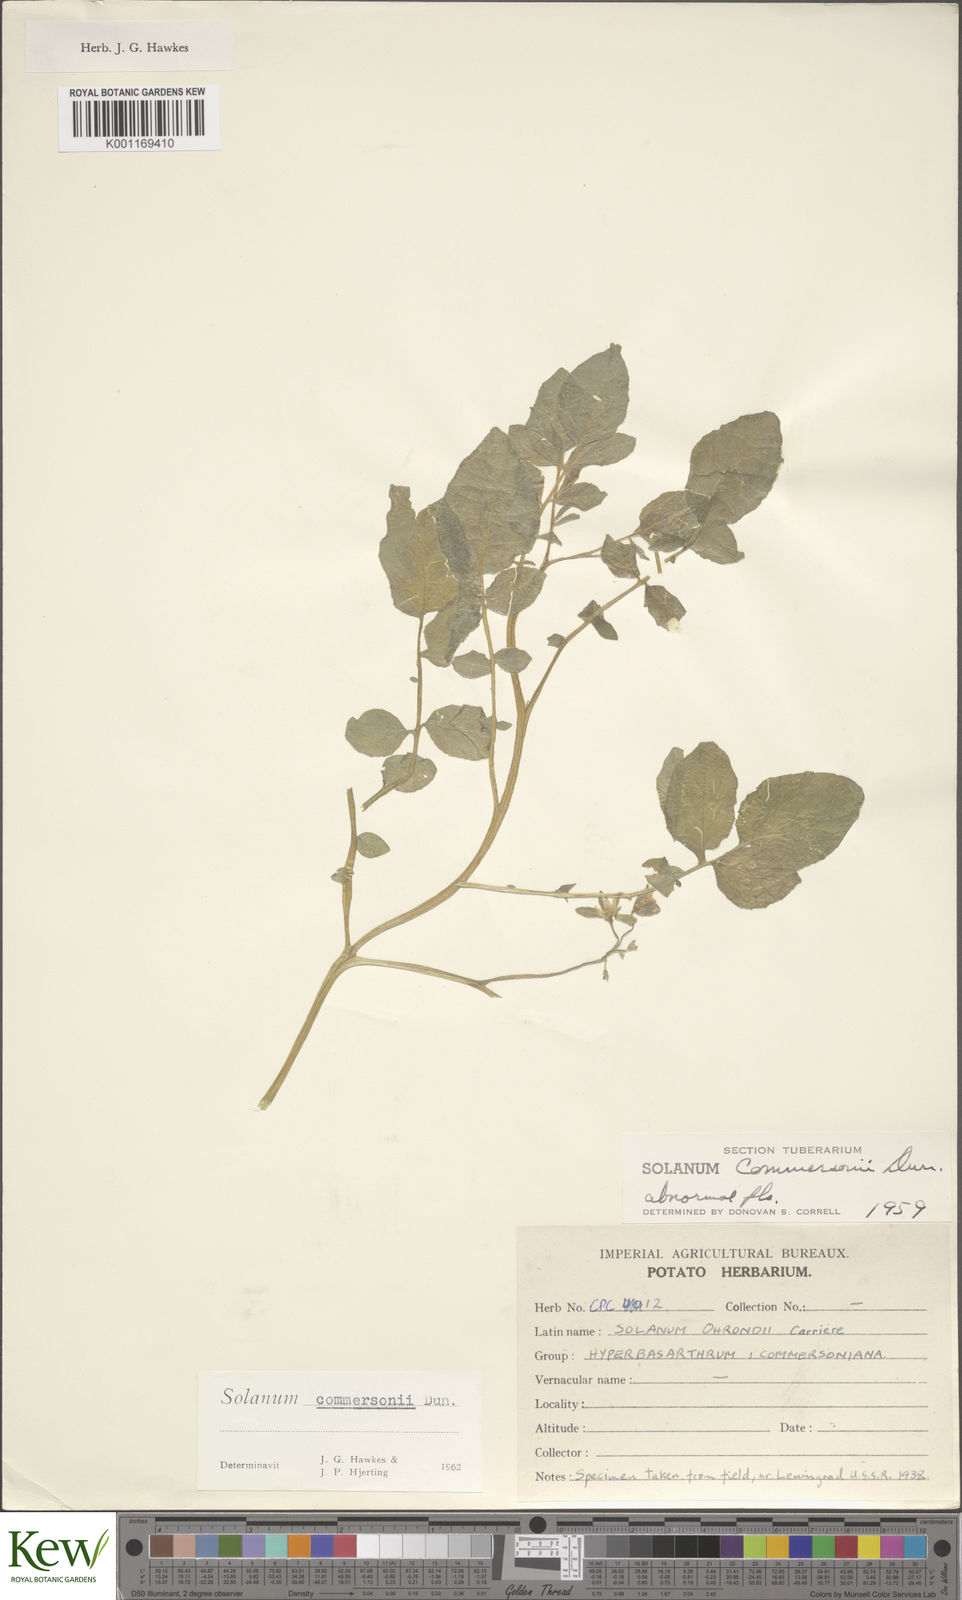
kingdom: Plantae
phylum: Tracheophyta
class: Magnoliopsida
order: Solanales
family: Solanaceae
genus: Solanum
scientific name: Solanum commersonii
